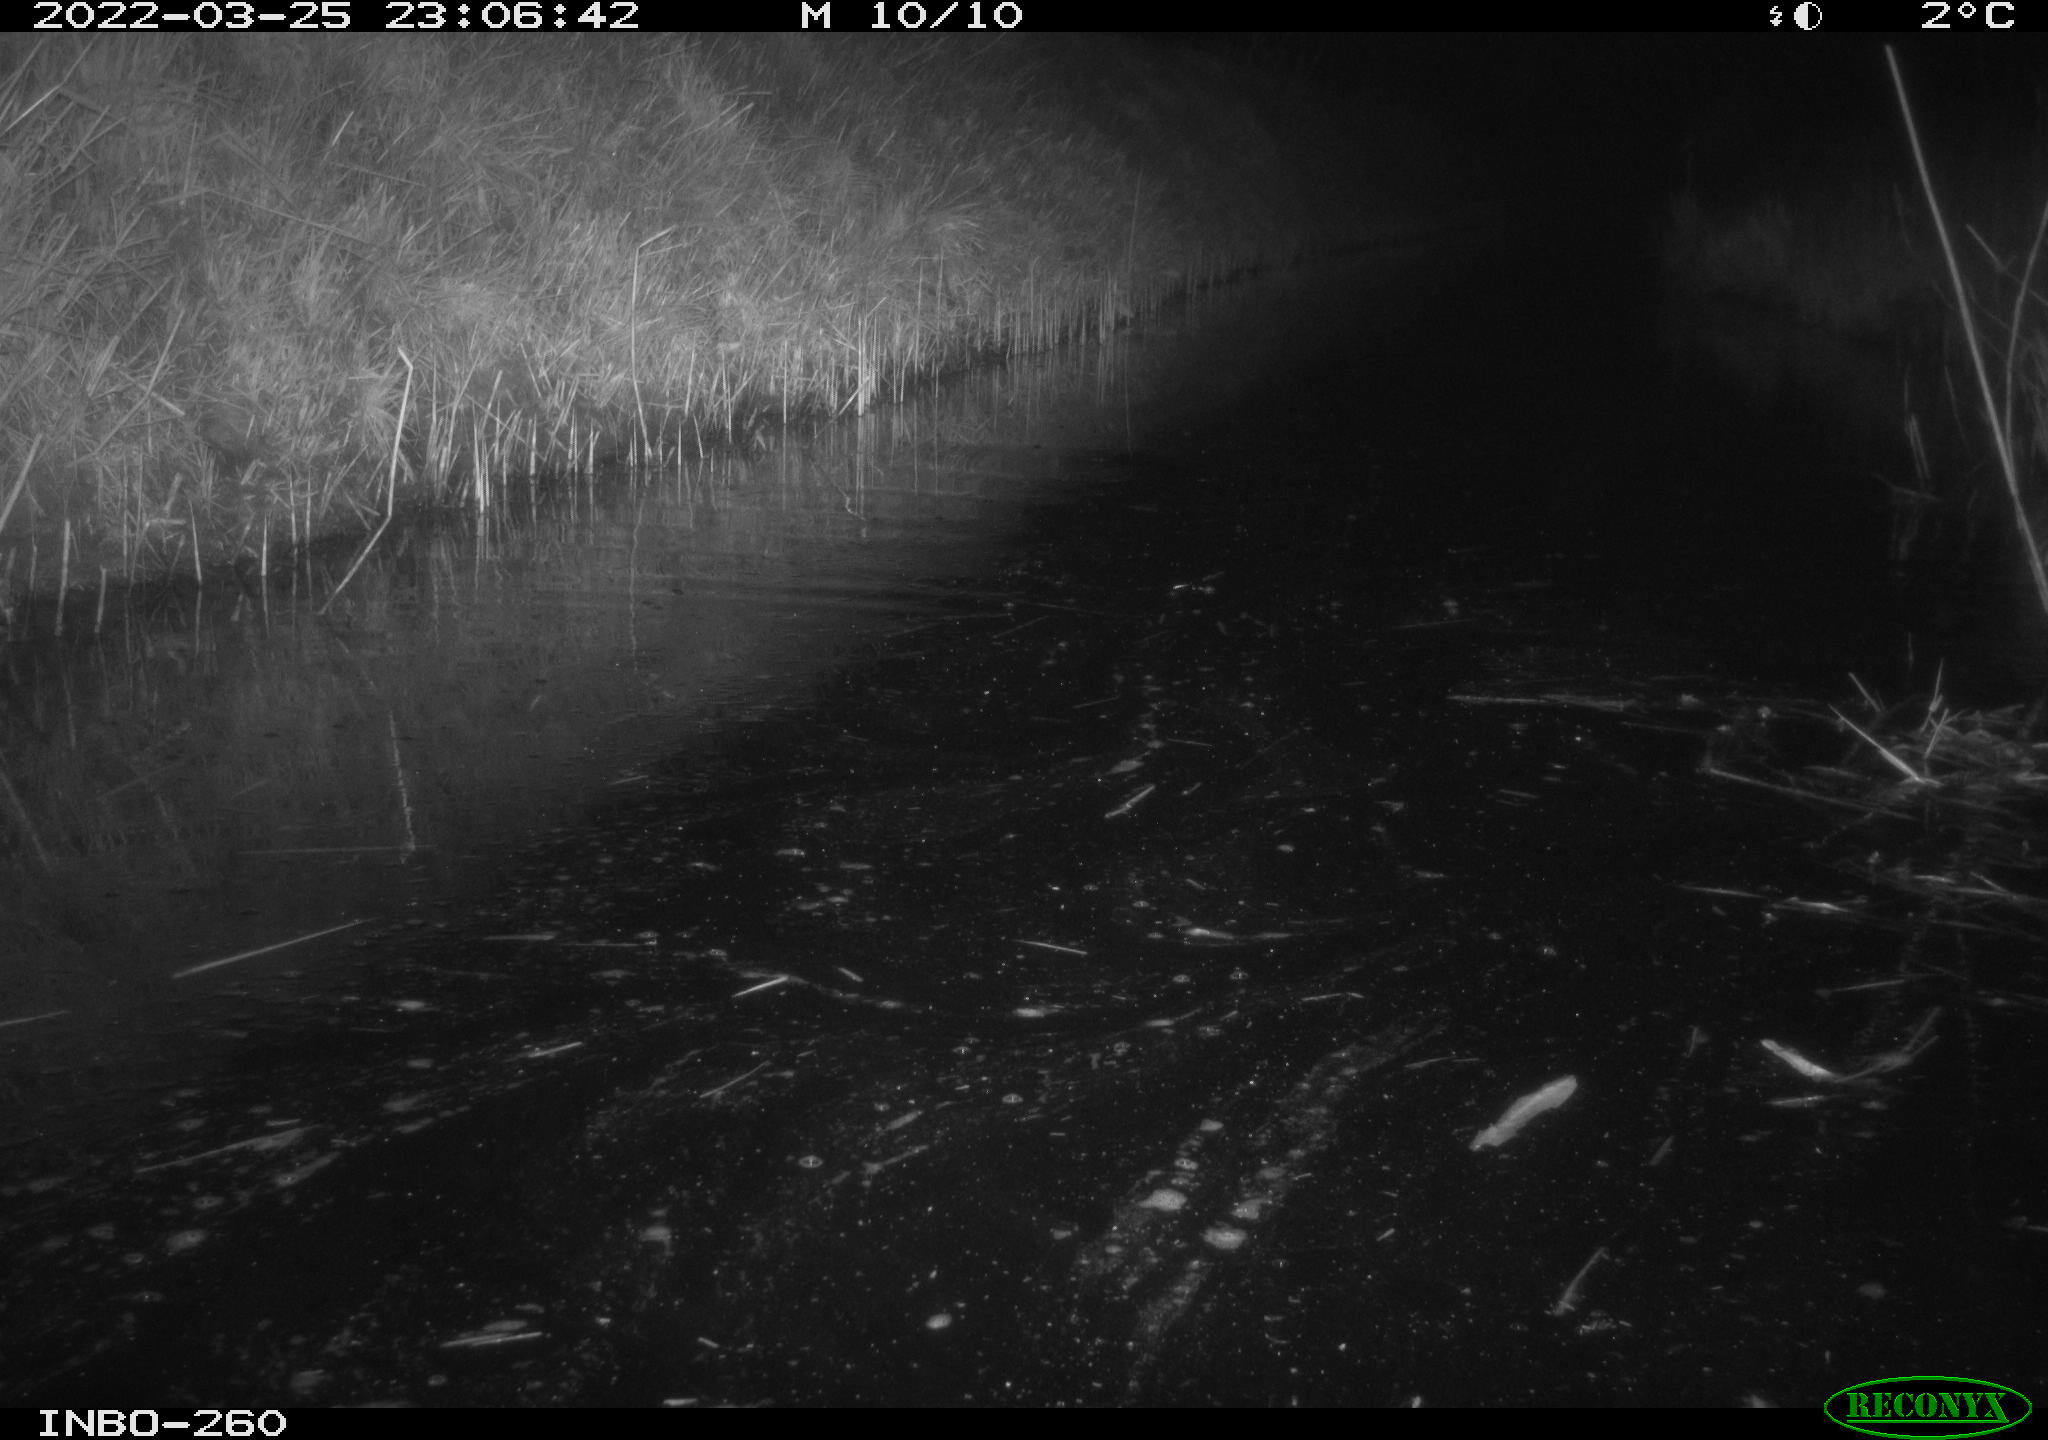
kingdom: Animalia
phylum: Chordata
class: Mammalia
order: Rodentia
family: Muridae
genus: Rattus
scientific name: Rattus norvegicus
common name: Brown rat
